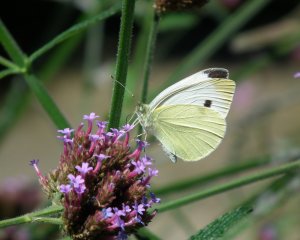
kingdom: Animalia
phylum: Arthropoda
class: Insecta
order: Lepidoptera
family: Pieridae
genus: Pieris
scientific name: Pieris rapae
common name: Cabbage White
